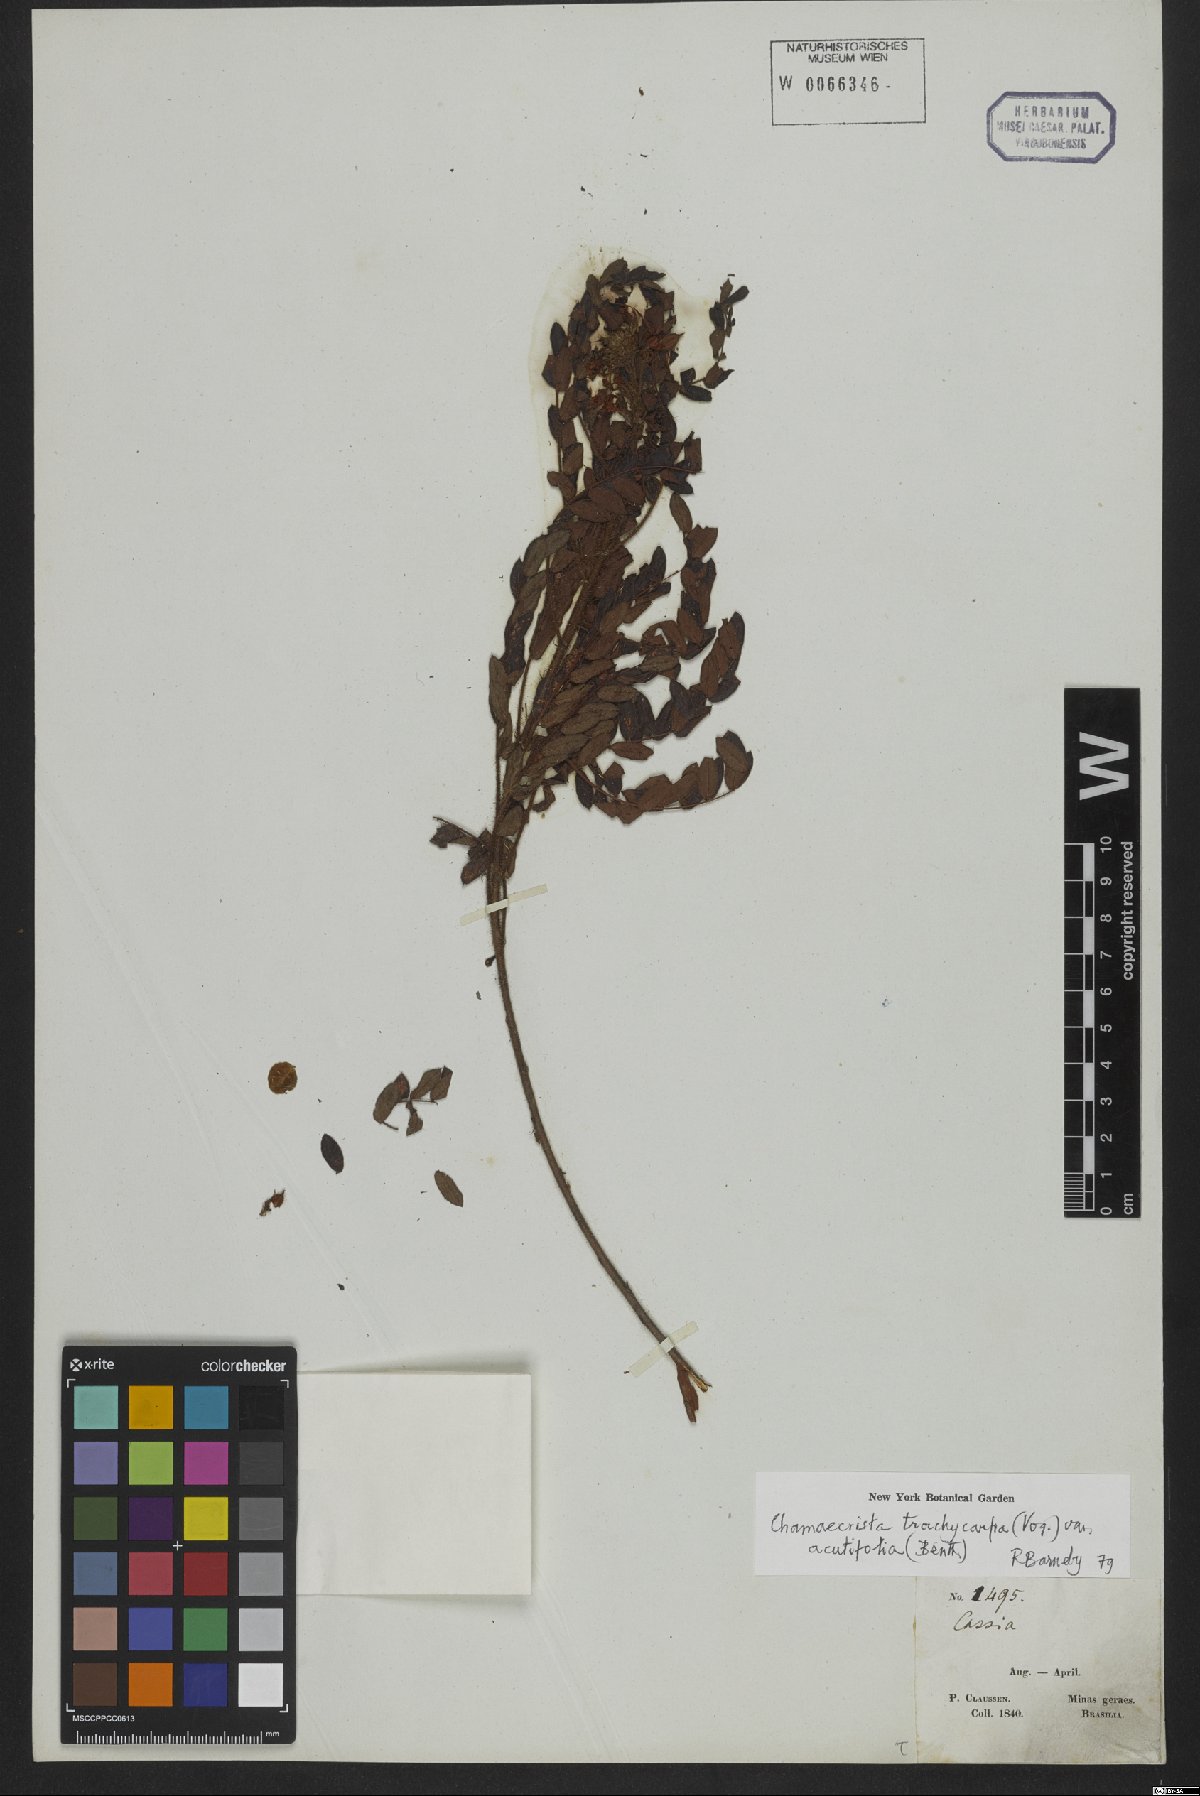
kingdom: Plantae
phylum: Tracheophyta
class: Magnoliopsida
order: Fabales
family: Fabaceae
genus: Chamaecrista
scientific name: Chamaecrista trachycarpa
